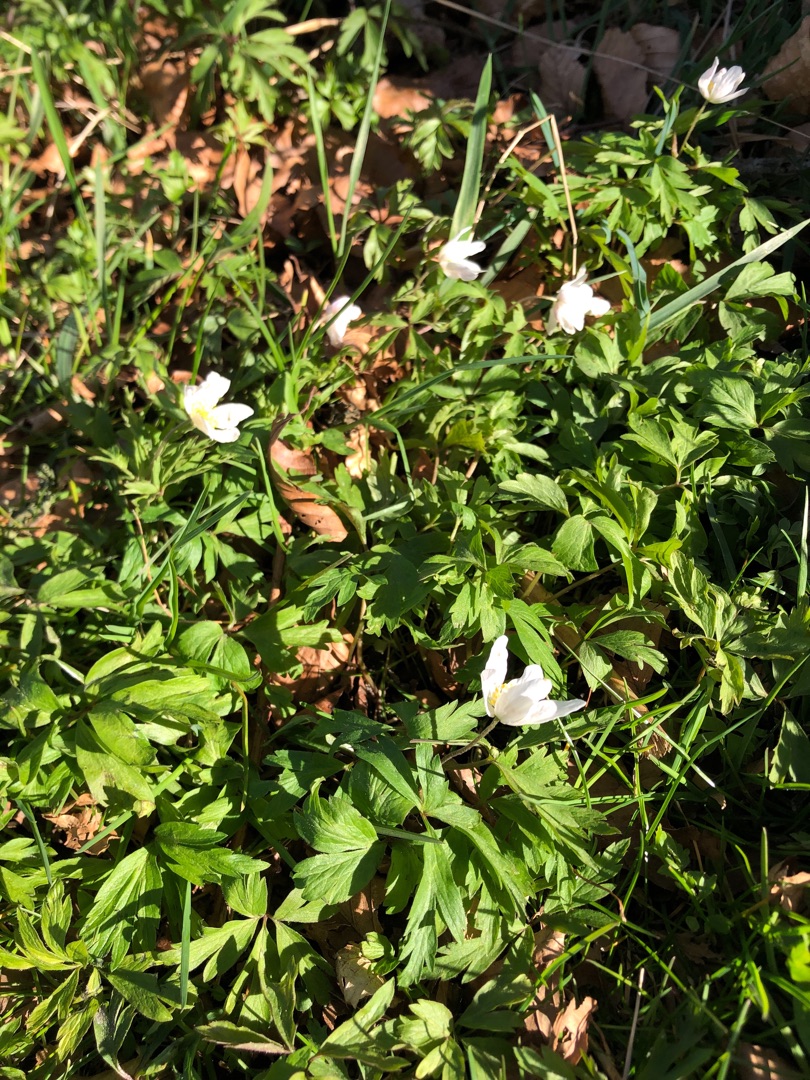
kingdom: Plantae
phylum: Tracheophyta
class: Magnoliopsida
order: Ranunculales
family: Ranunculaceae
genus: Anemone
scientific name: Anemone nemorosa
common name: Hvid anemone
